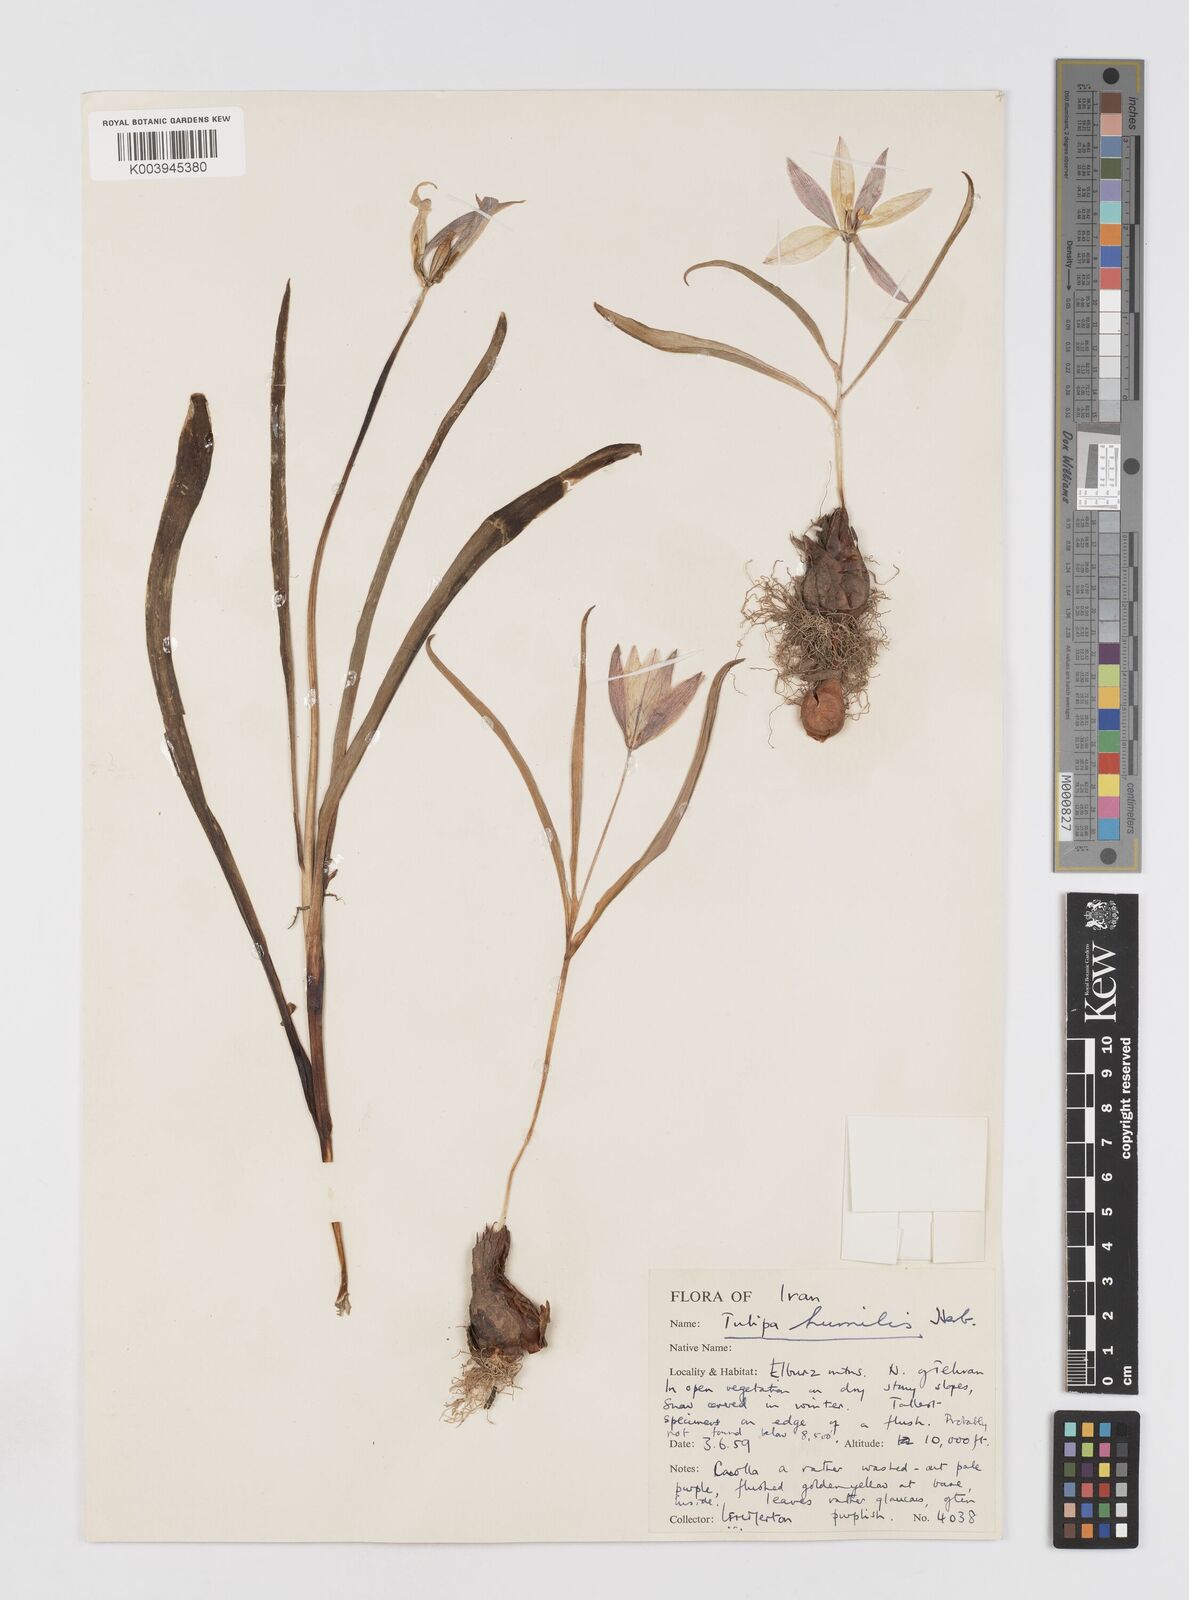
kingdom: Plantae
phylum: Tracheophyta
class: Liliopsida
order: Liliales
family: Liliaceae
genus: Tulipa
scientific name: Tulipa humilis
